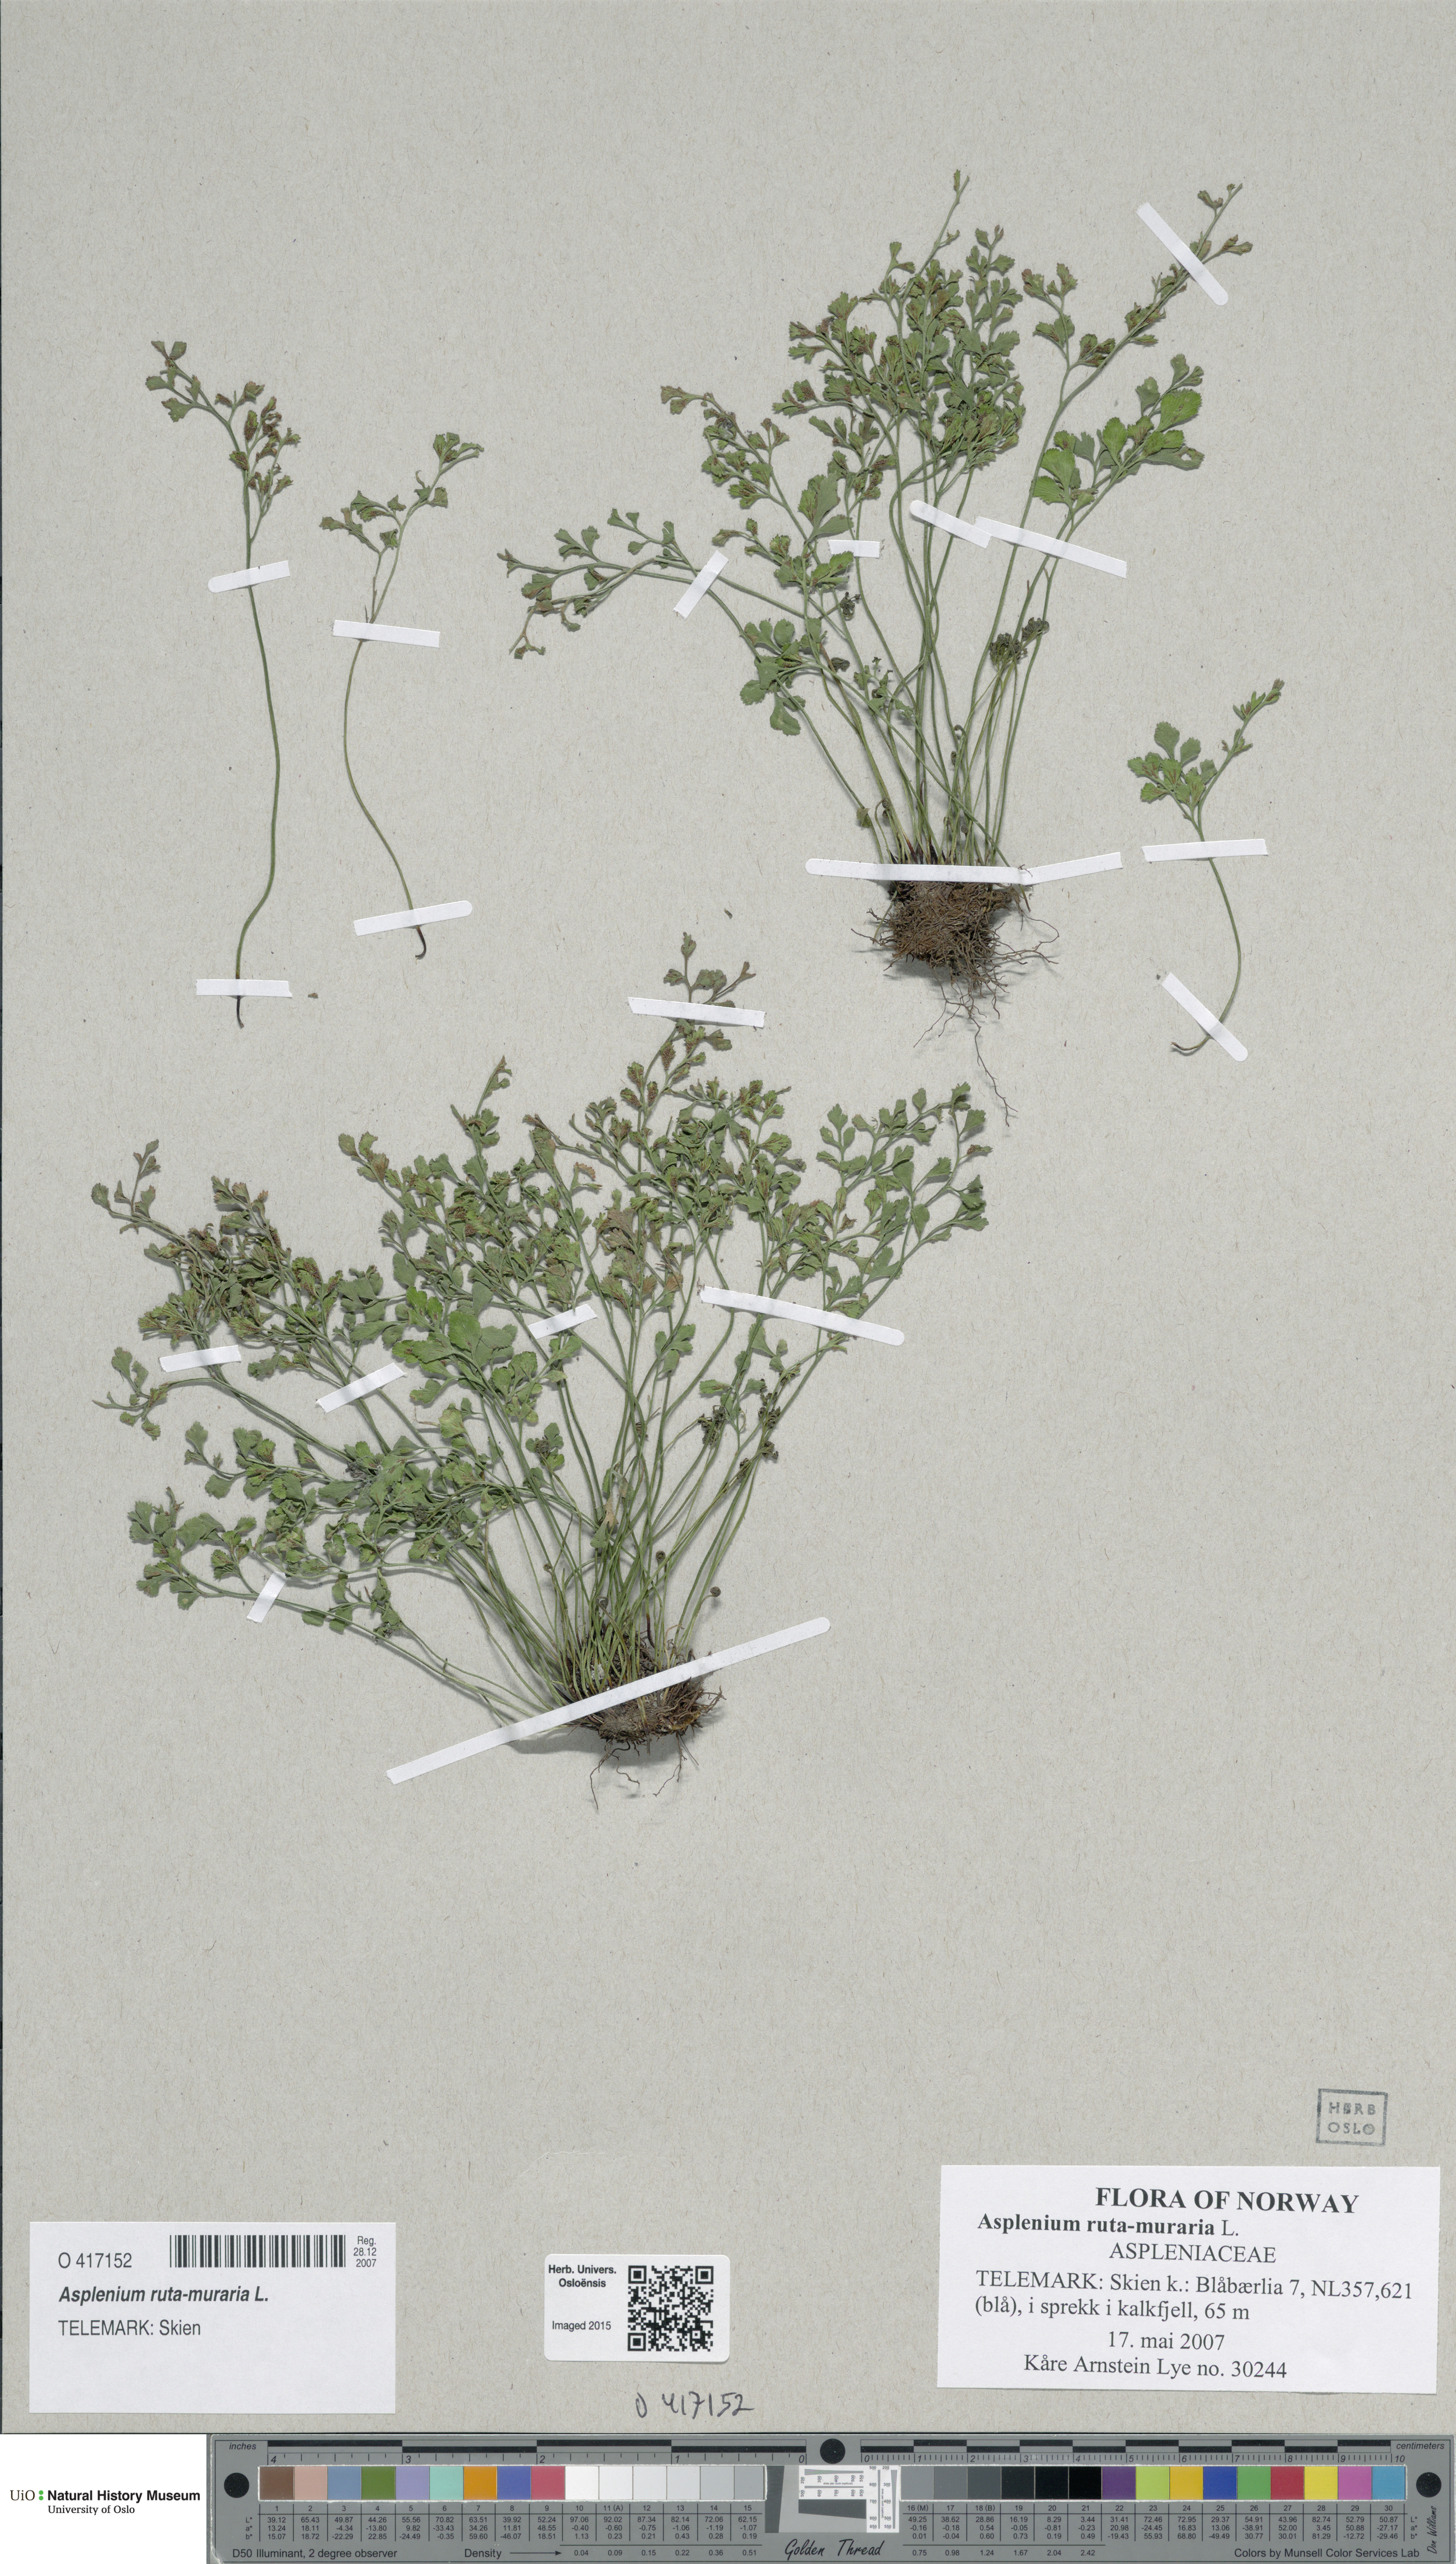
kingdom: Plantae
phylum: Tracheophyta
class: Polypodiopsida
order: Polypodiales
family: Aspleniaceae
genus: Asplenium
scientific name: Asplenium ruta-muraria
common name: Wall-rue
